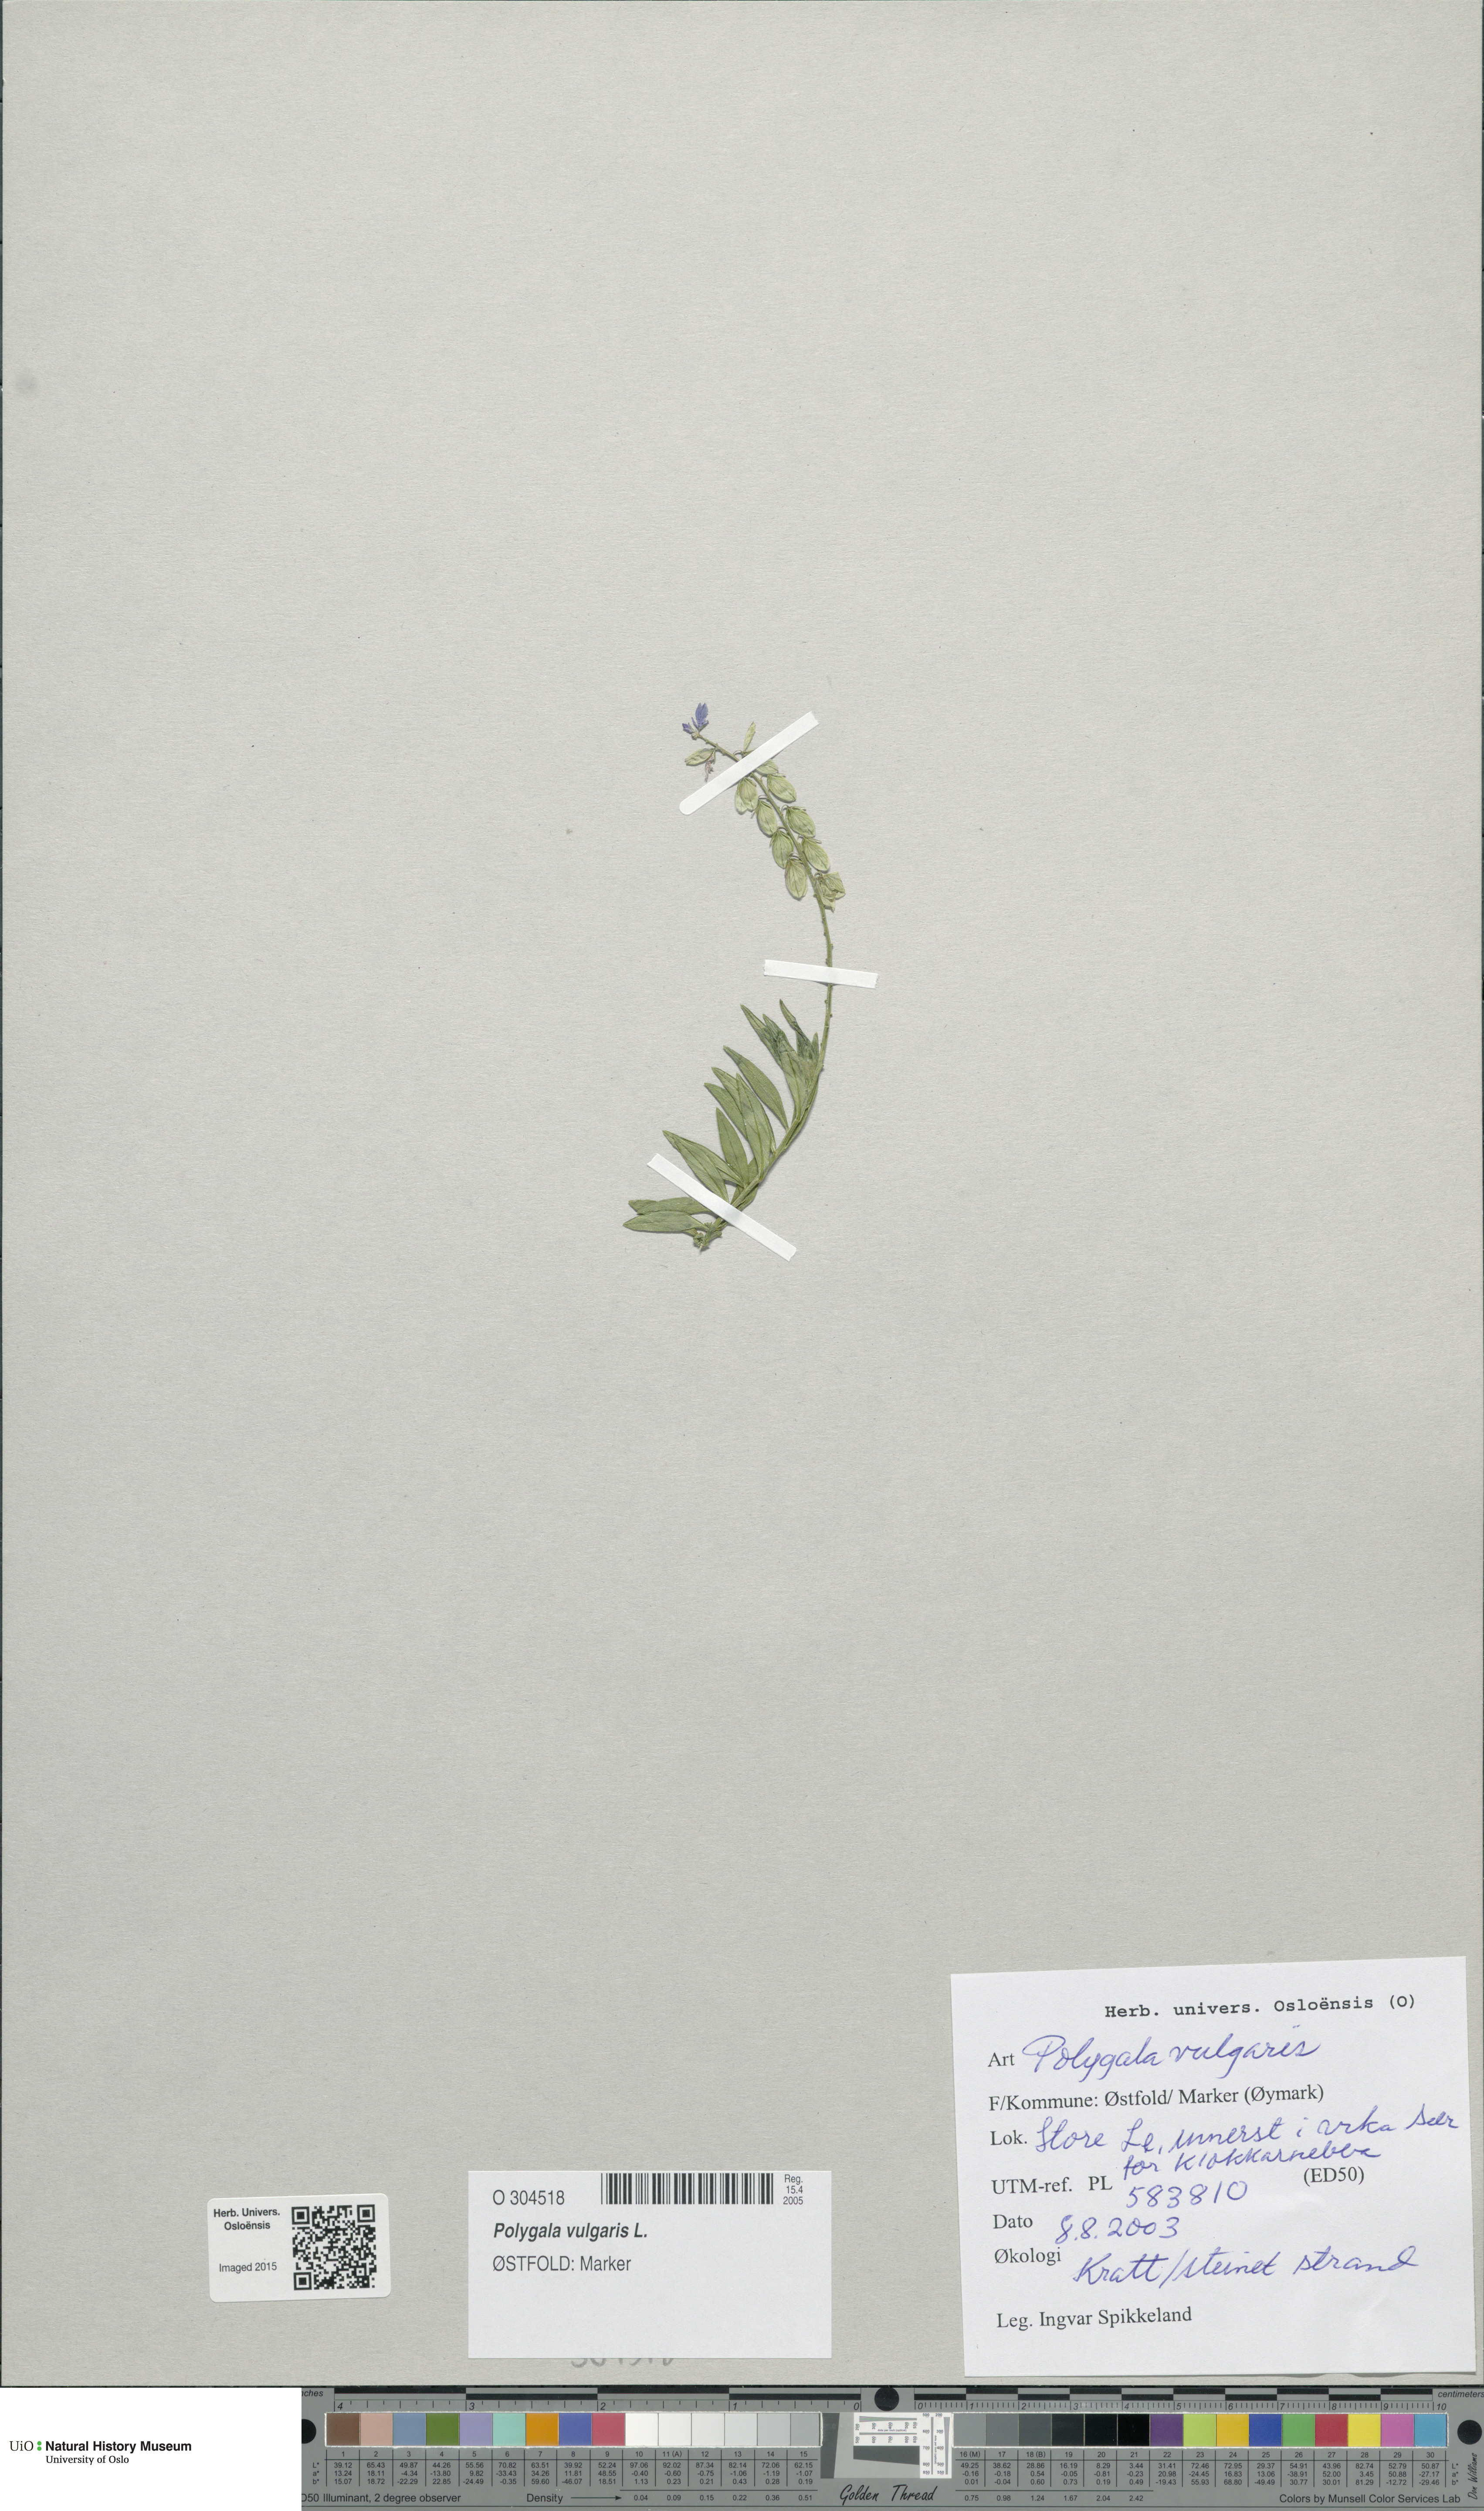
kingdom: Plantae
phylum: Tracheophyta
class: Magnoliopsida
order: Fabales
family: Polygalaceae
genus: Polygala
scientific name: Polygala vulgaris
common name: Common milkwort
